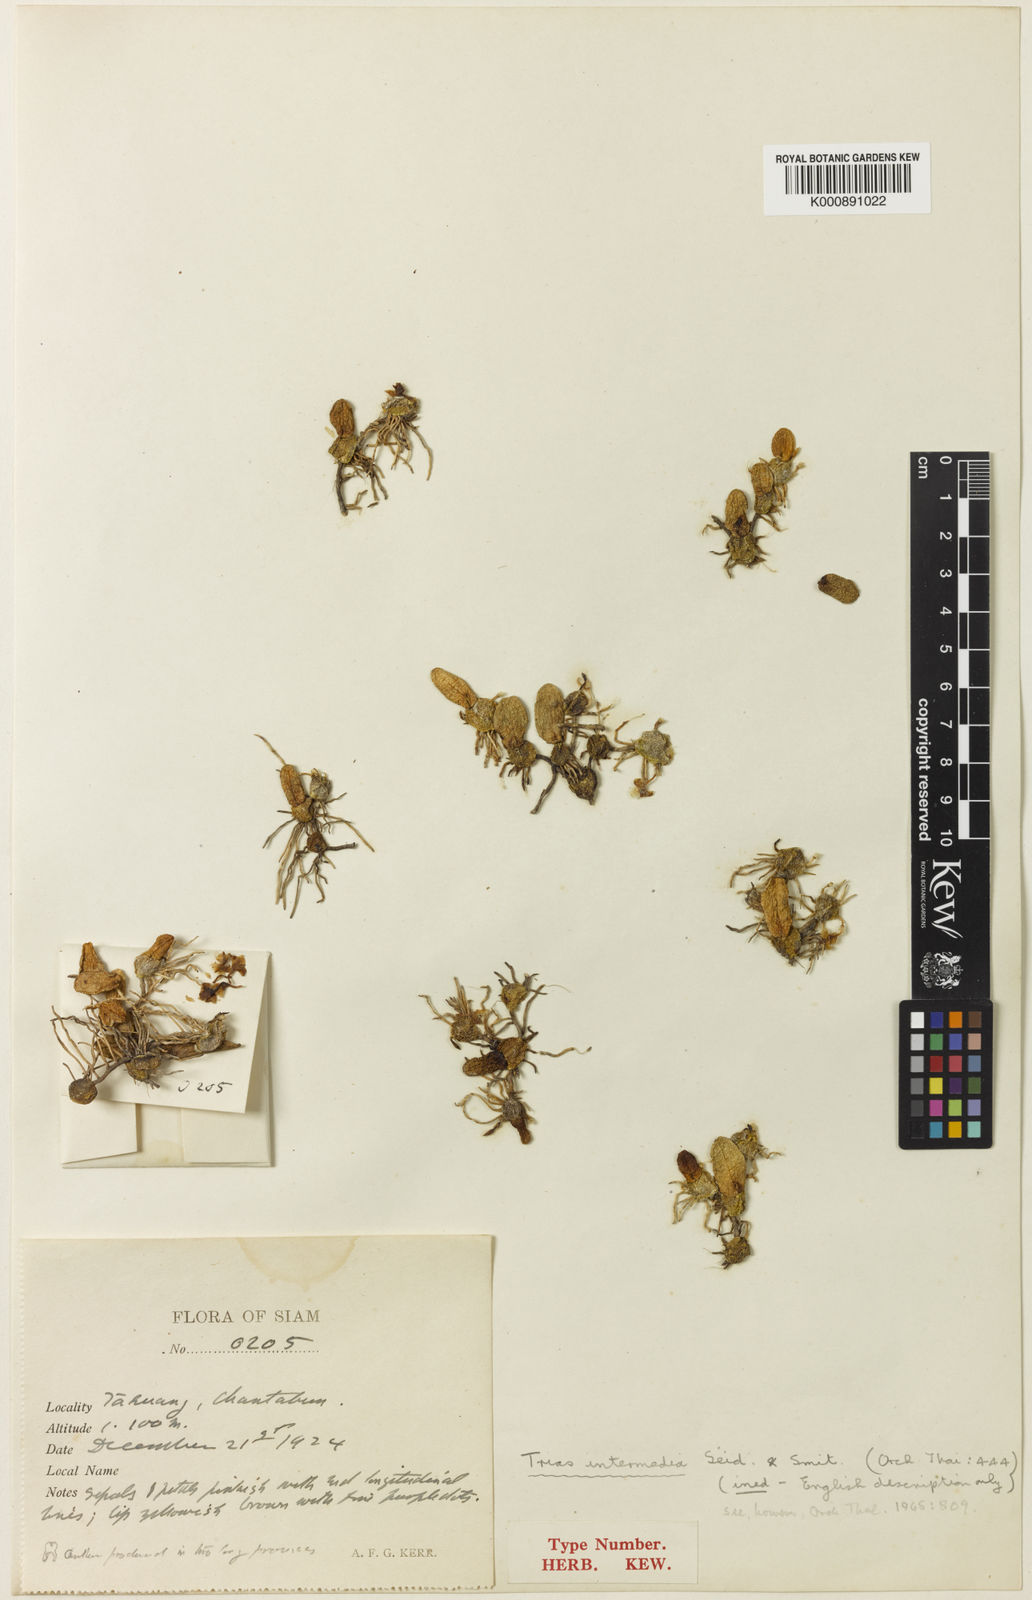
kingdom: Plantae
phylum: Tracheophyta
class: Liliopsida
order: Asparagales
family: Orchidaceae
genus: Bulbophyllum
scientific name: Bulbophyllum meson
